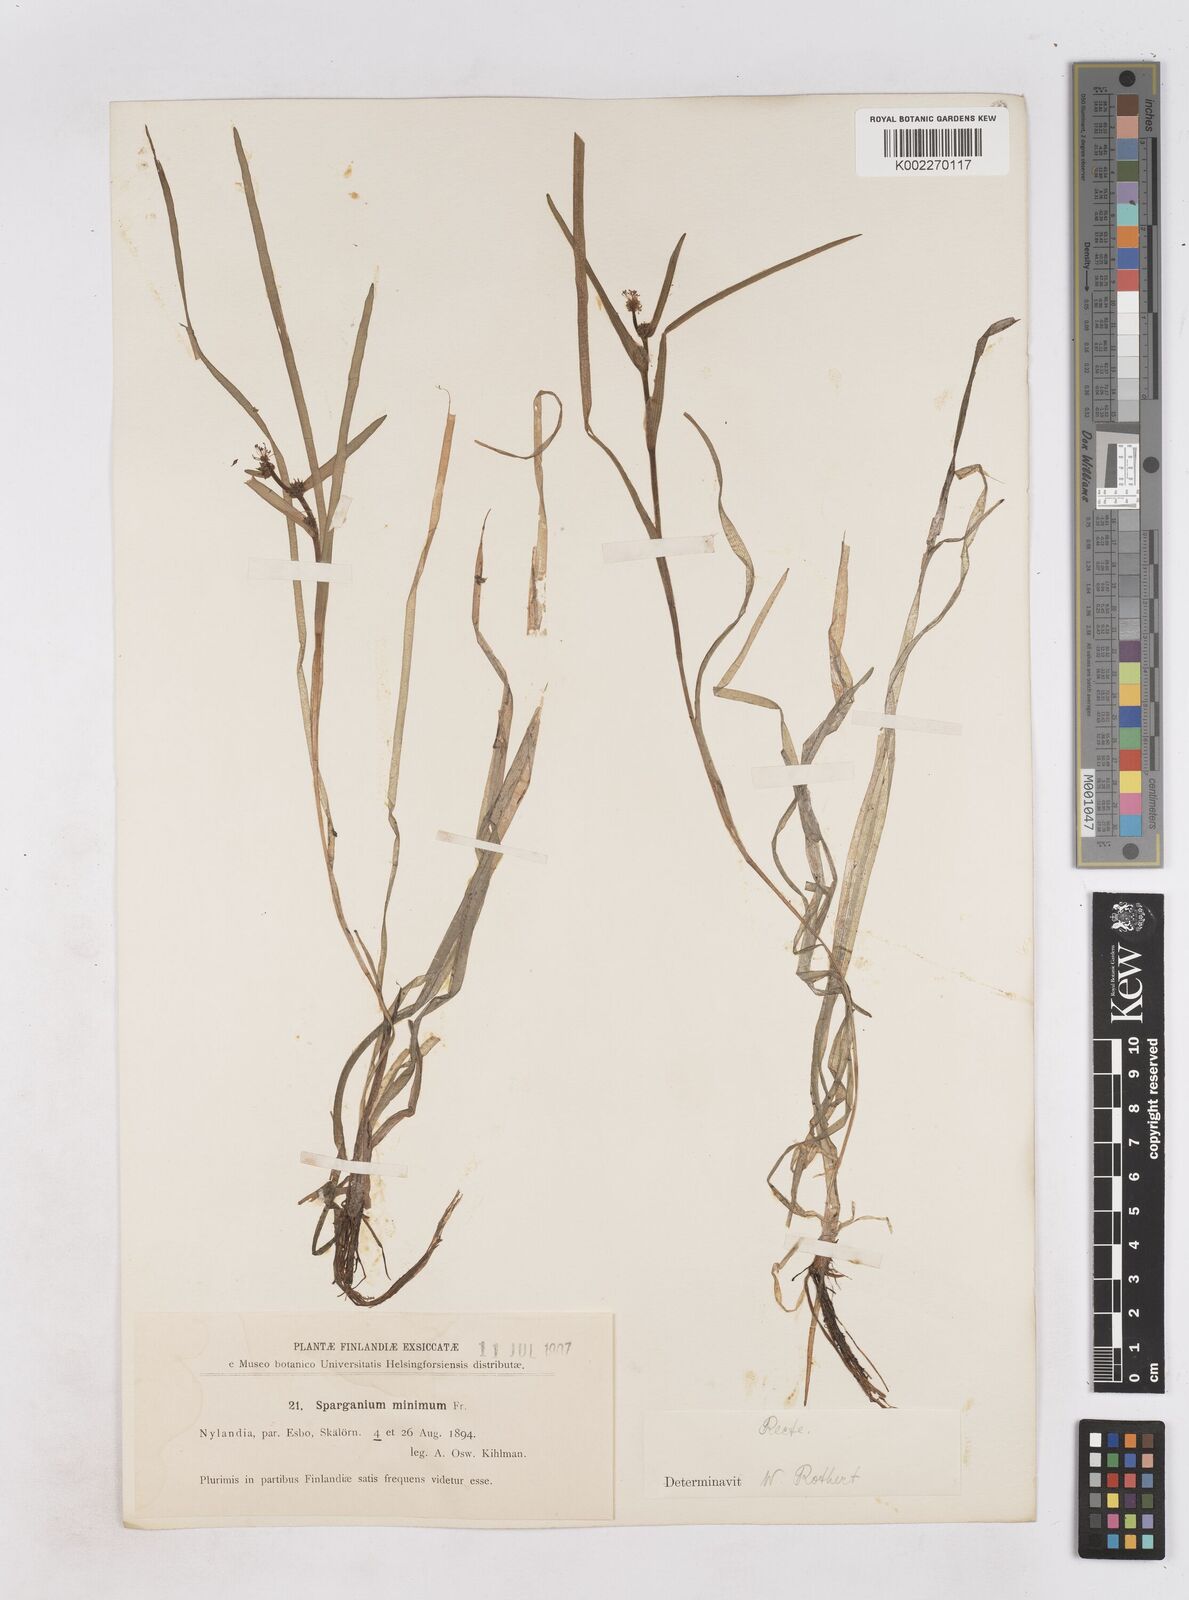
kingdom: Plantae
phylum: Tracheophyta
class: Liliopsida
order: Poales
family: Typhaceae
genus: Sparganium
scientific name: Sparganium natans
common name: Least bur-reed
